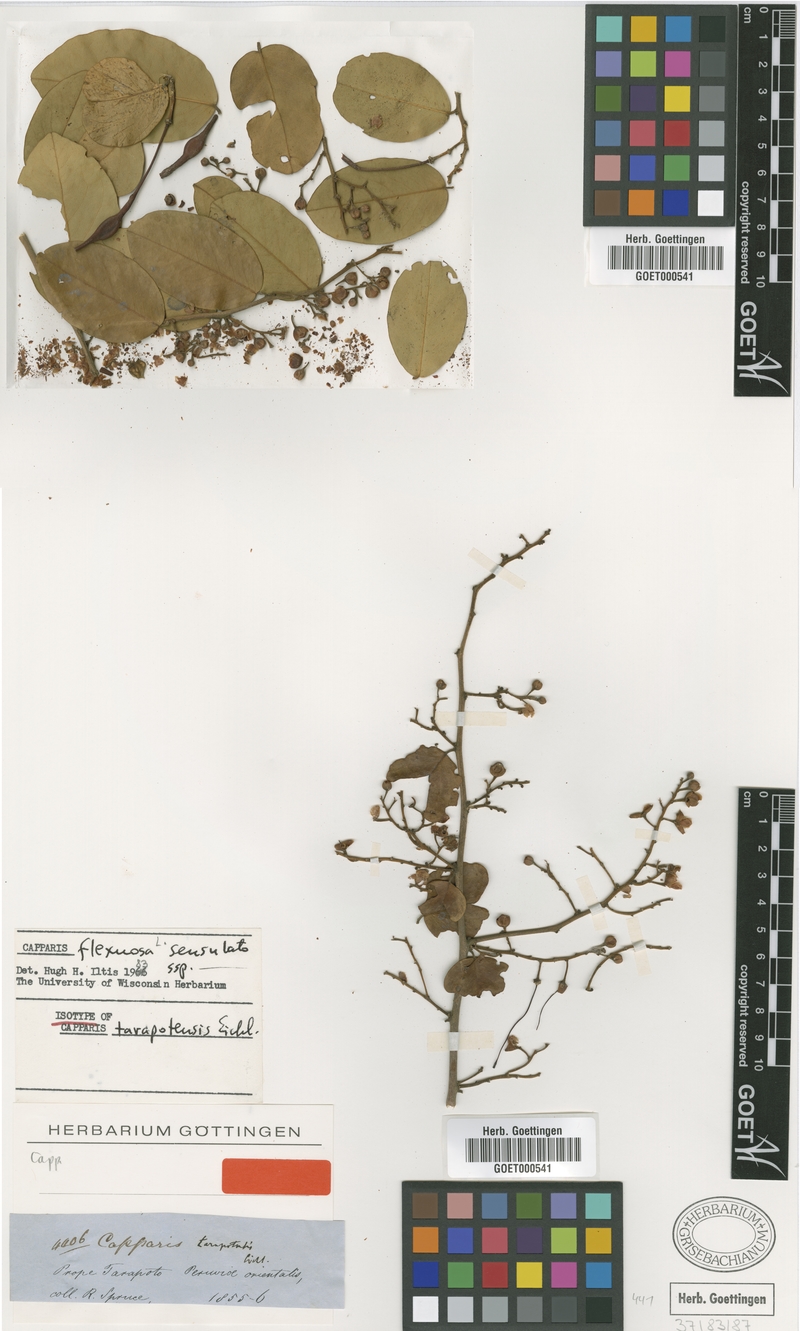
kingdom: Plantae
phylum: Tracheophyta
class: Magnoliopsida
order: Brassicales
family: Capparaceae
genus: Cynophalla
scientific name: Cynophalla flexuosa
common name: Capertree
